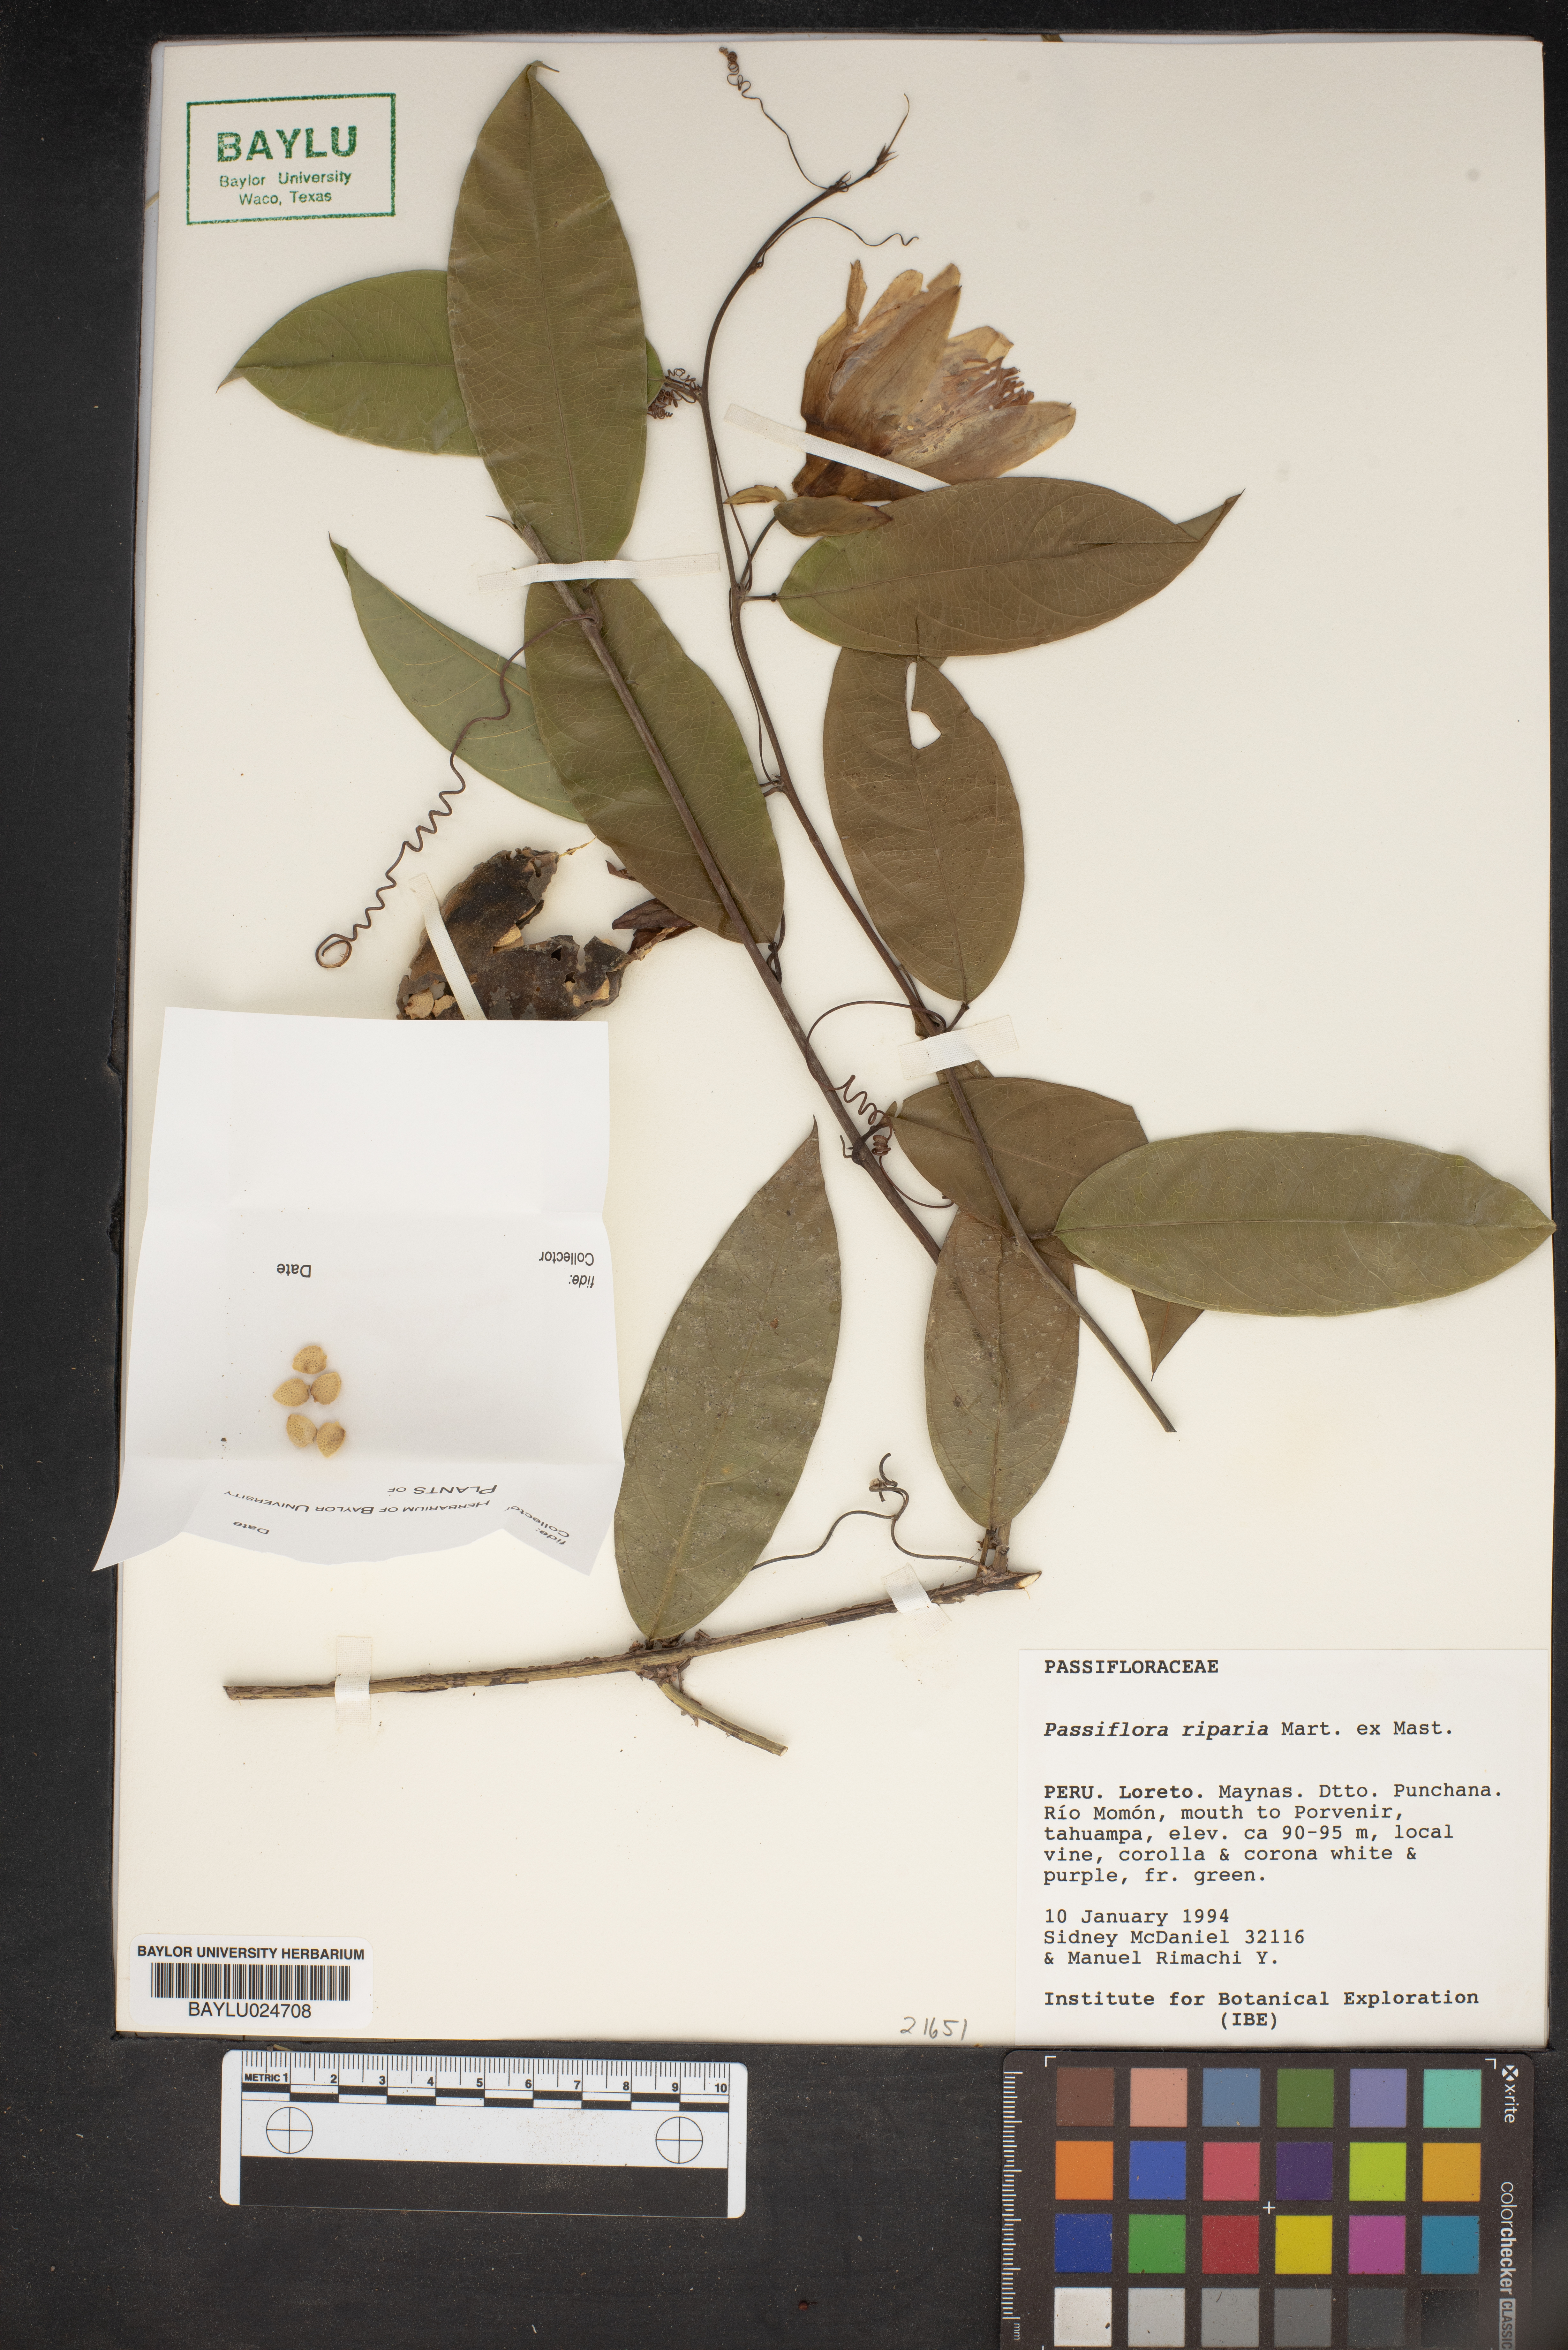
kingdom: Plantae
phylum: Tracheophyta
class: Magnoliopsida
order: Malpighiales
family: Passifloraceae
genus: Passiflora
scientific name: Passiflora riparia
